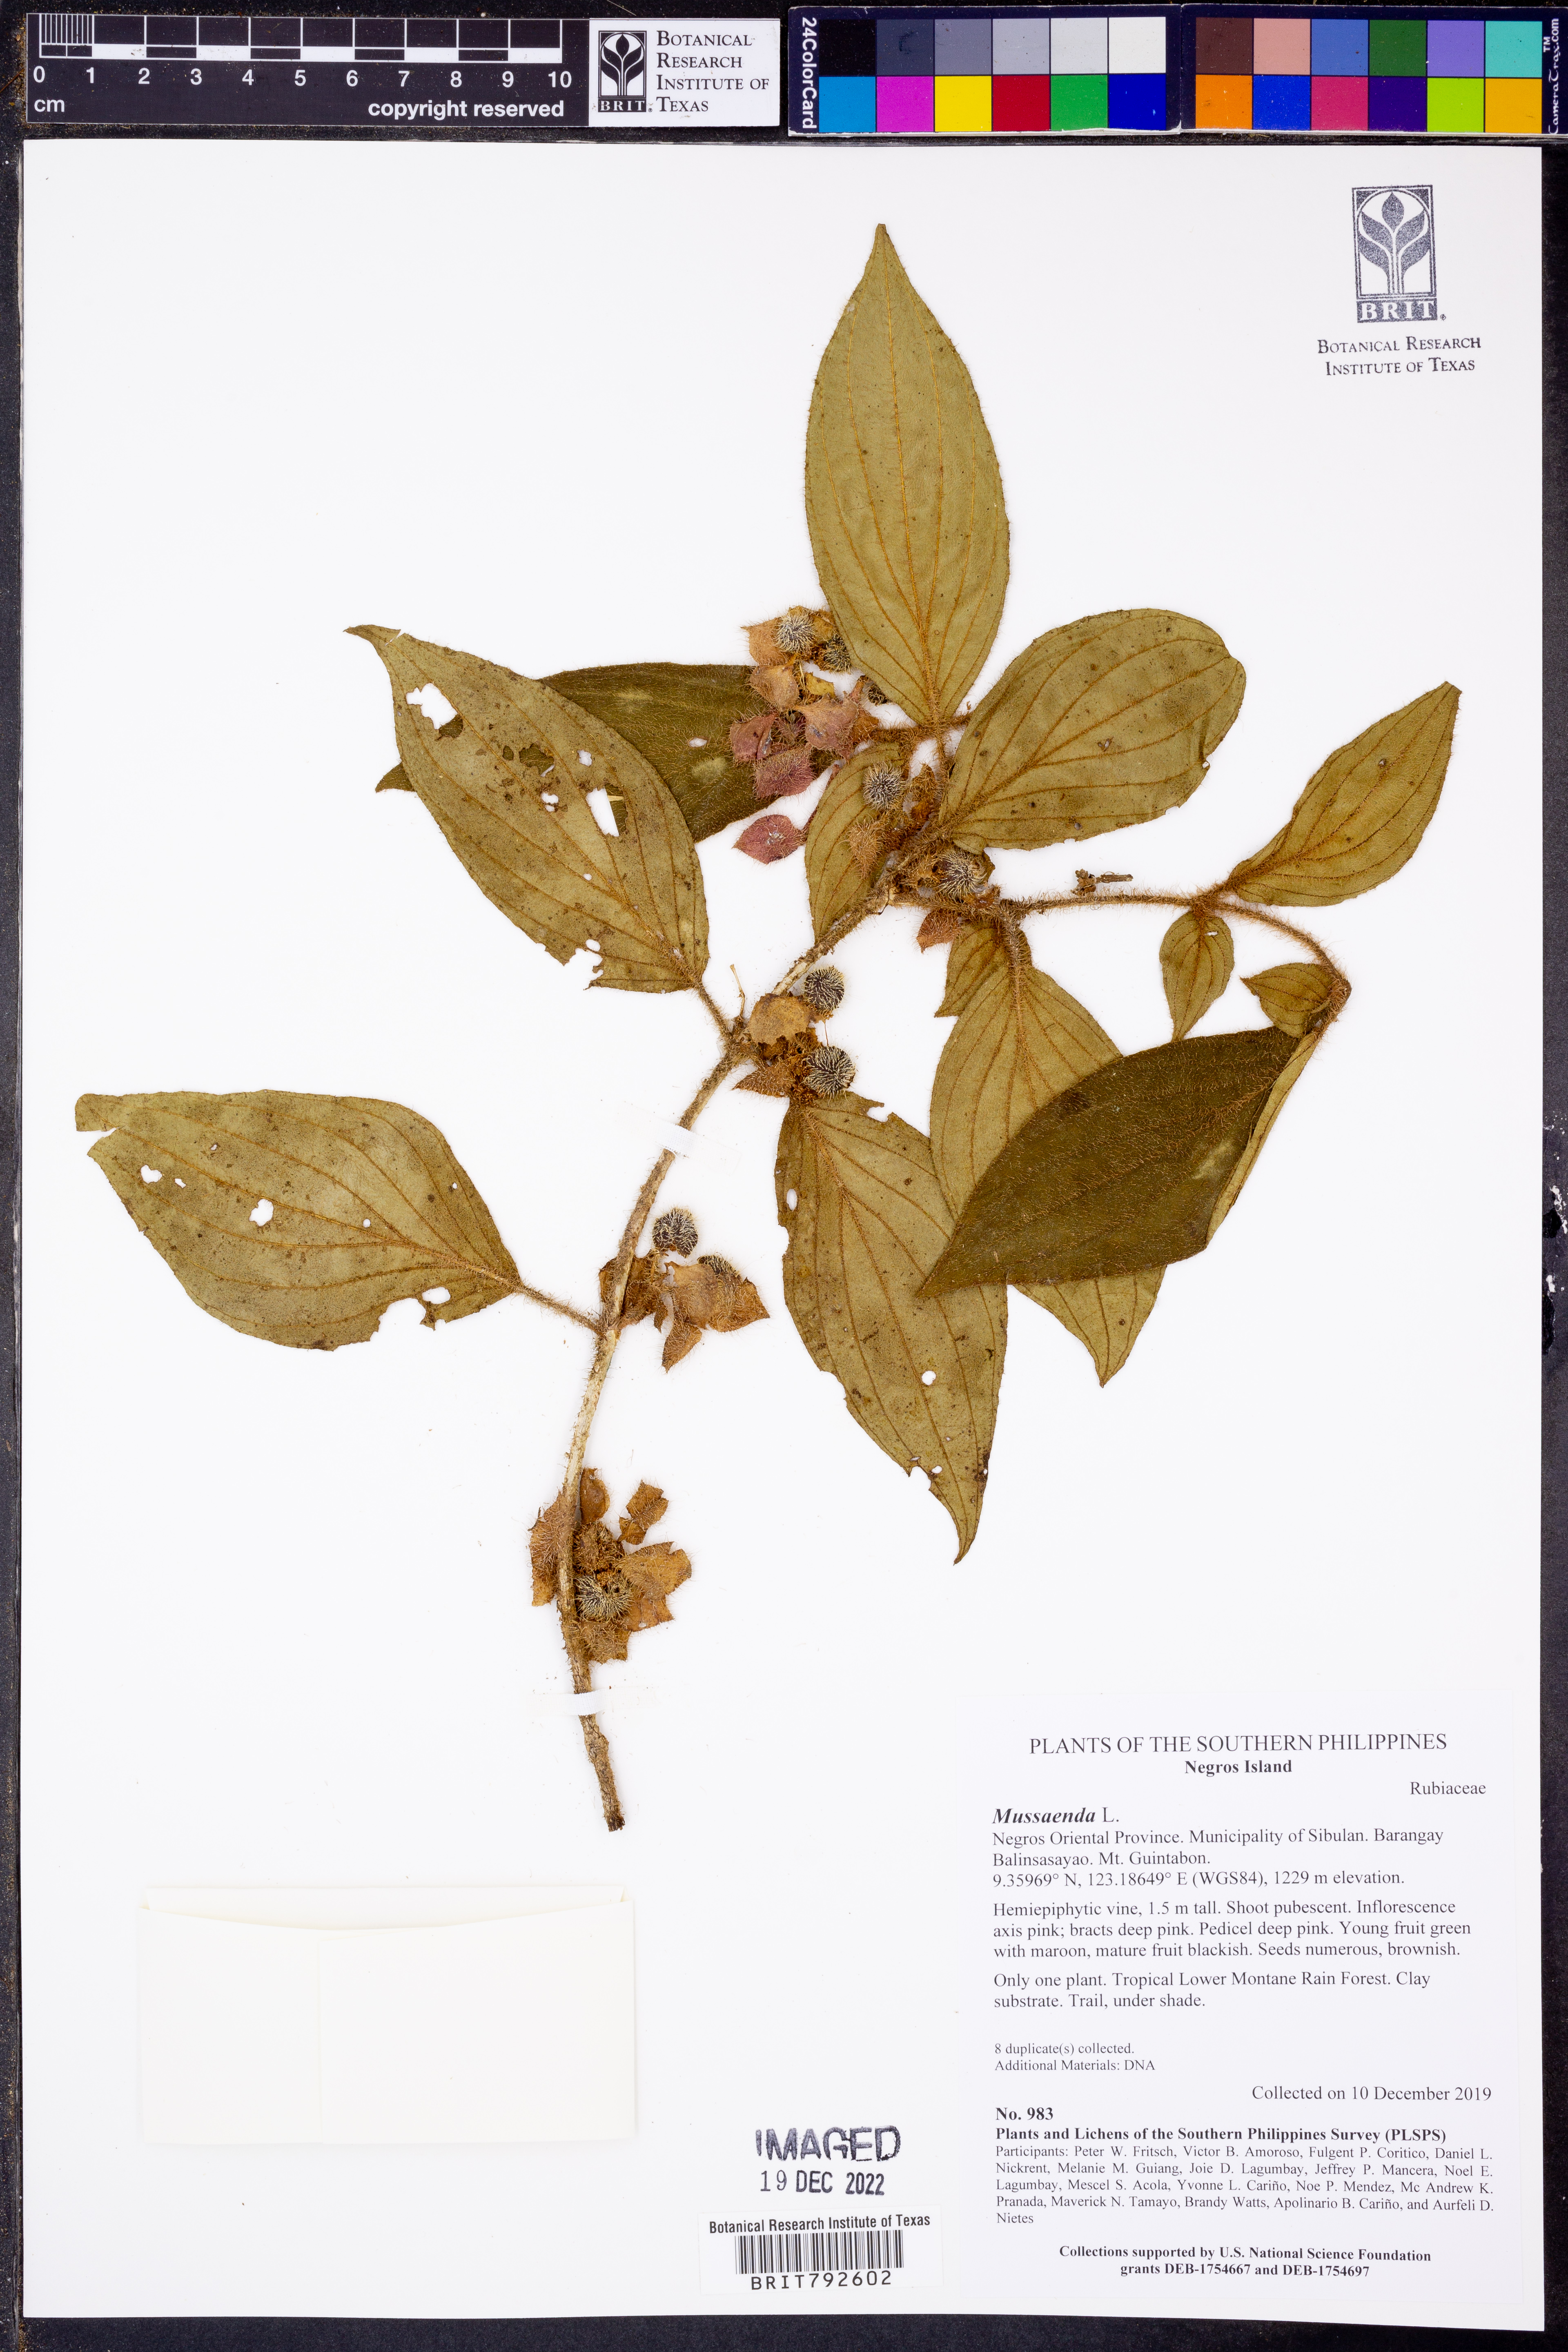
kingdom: Plantae
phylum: Tracheophyta
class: Magnoliopsida
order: Gentianales
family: Rubiaceae
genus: Mussaenda
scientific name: Mussaenda
